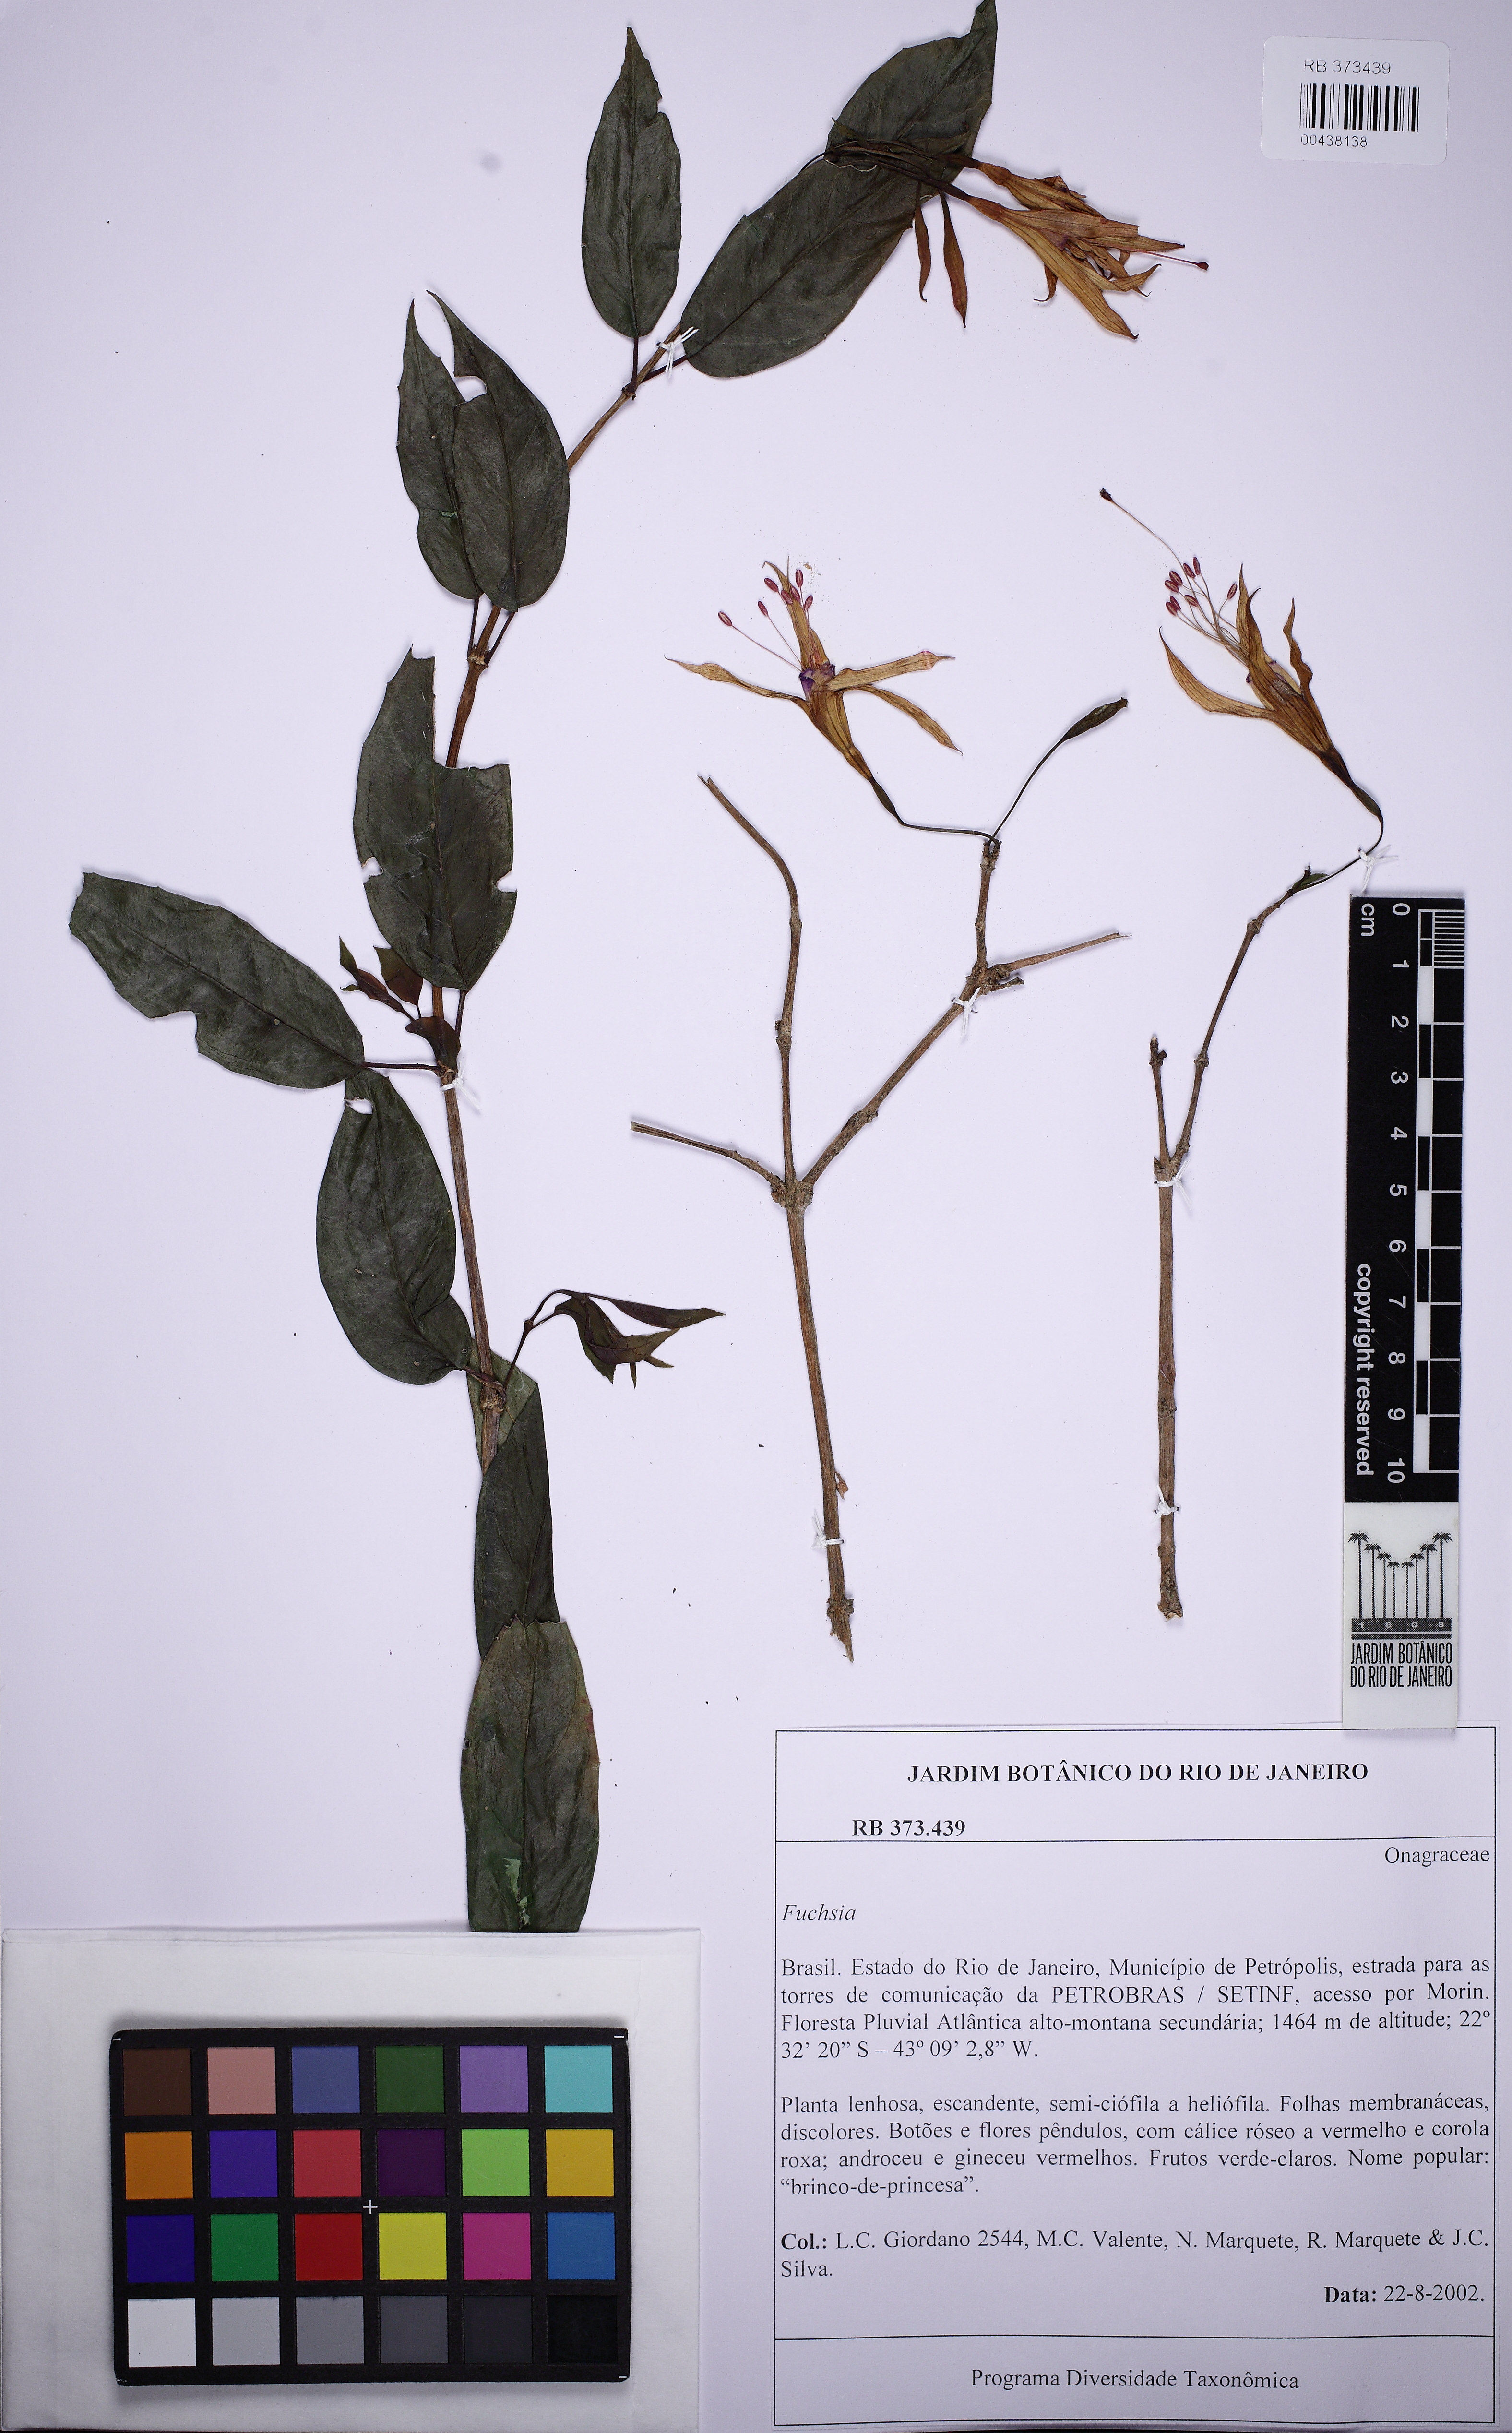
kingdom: Plantae
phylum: Tracheophyta
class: Magnoliopsida
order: Myrtales
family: Onagraceae
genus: Fuchsia
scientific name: Fuchsia
